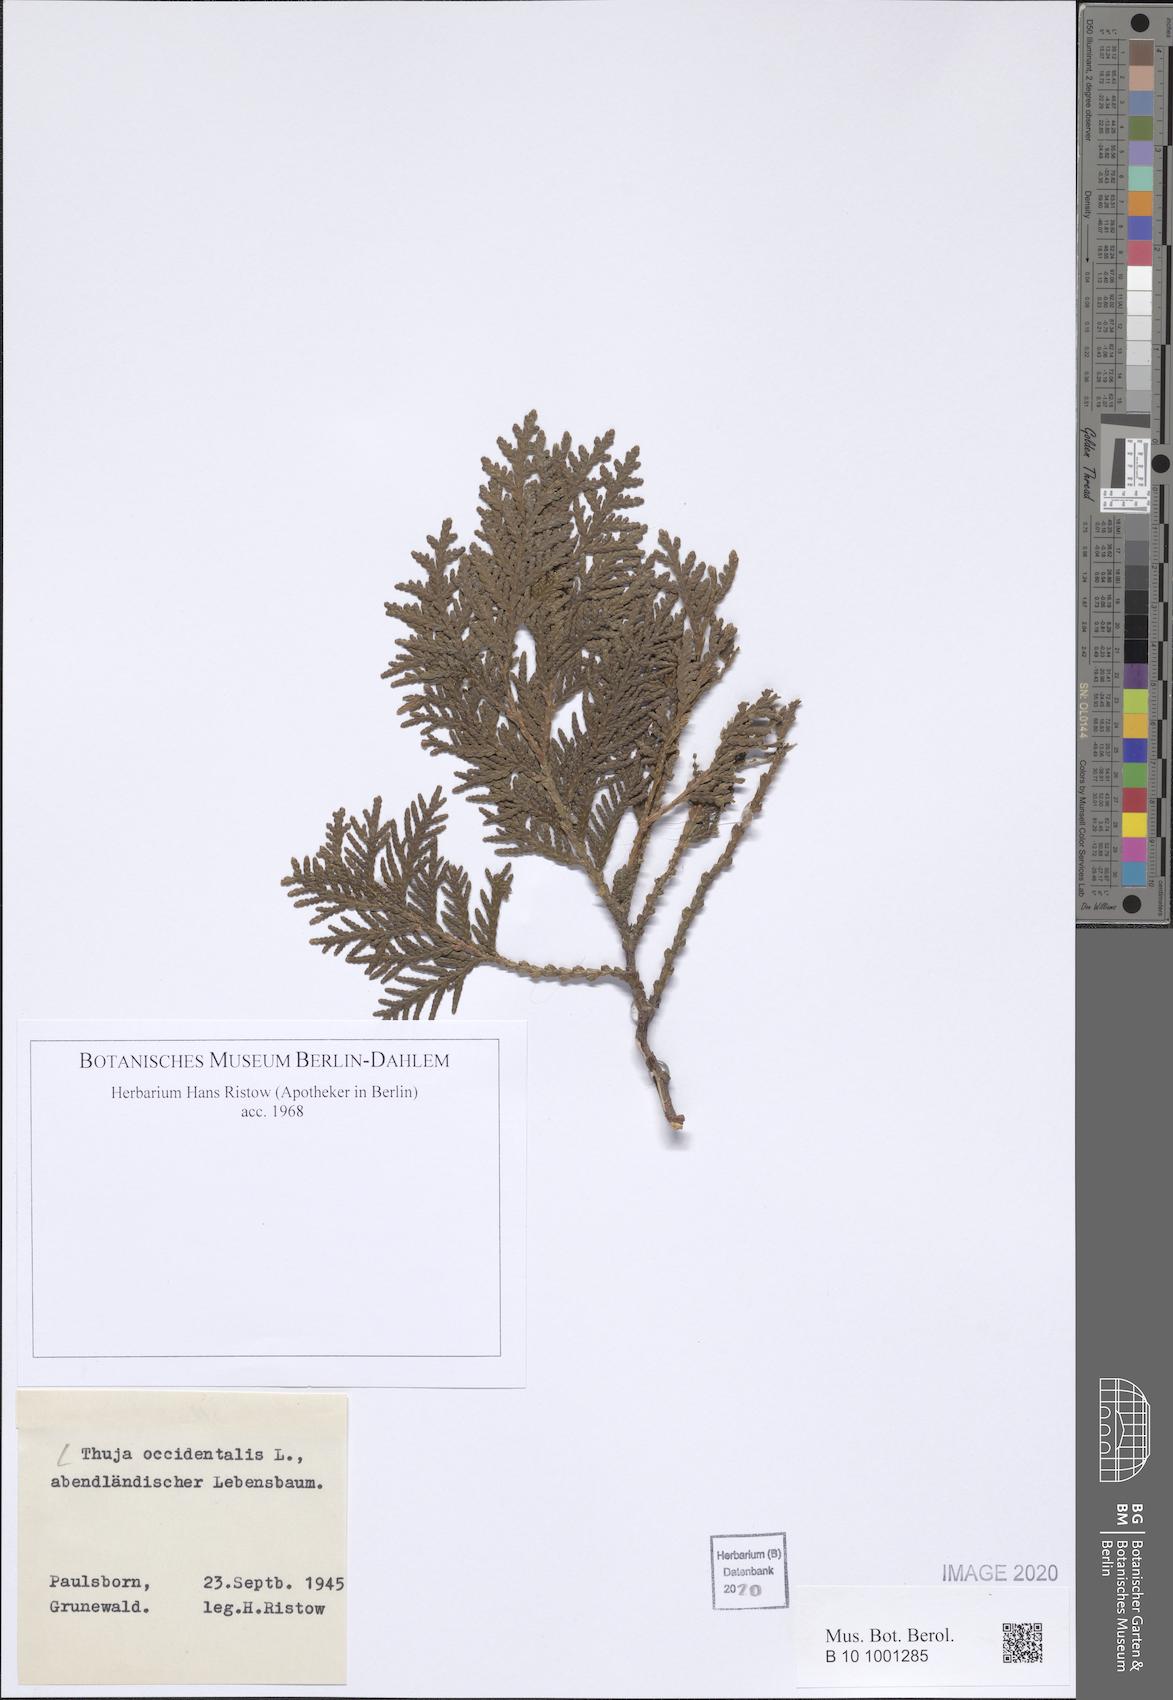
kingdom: Plantae
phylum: Tracheophyta
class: Pinopsida
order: Pinales
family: Cupressaceae
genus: Thuja
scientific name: Thuja occidentalis
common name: Northern white-cedar
